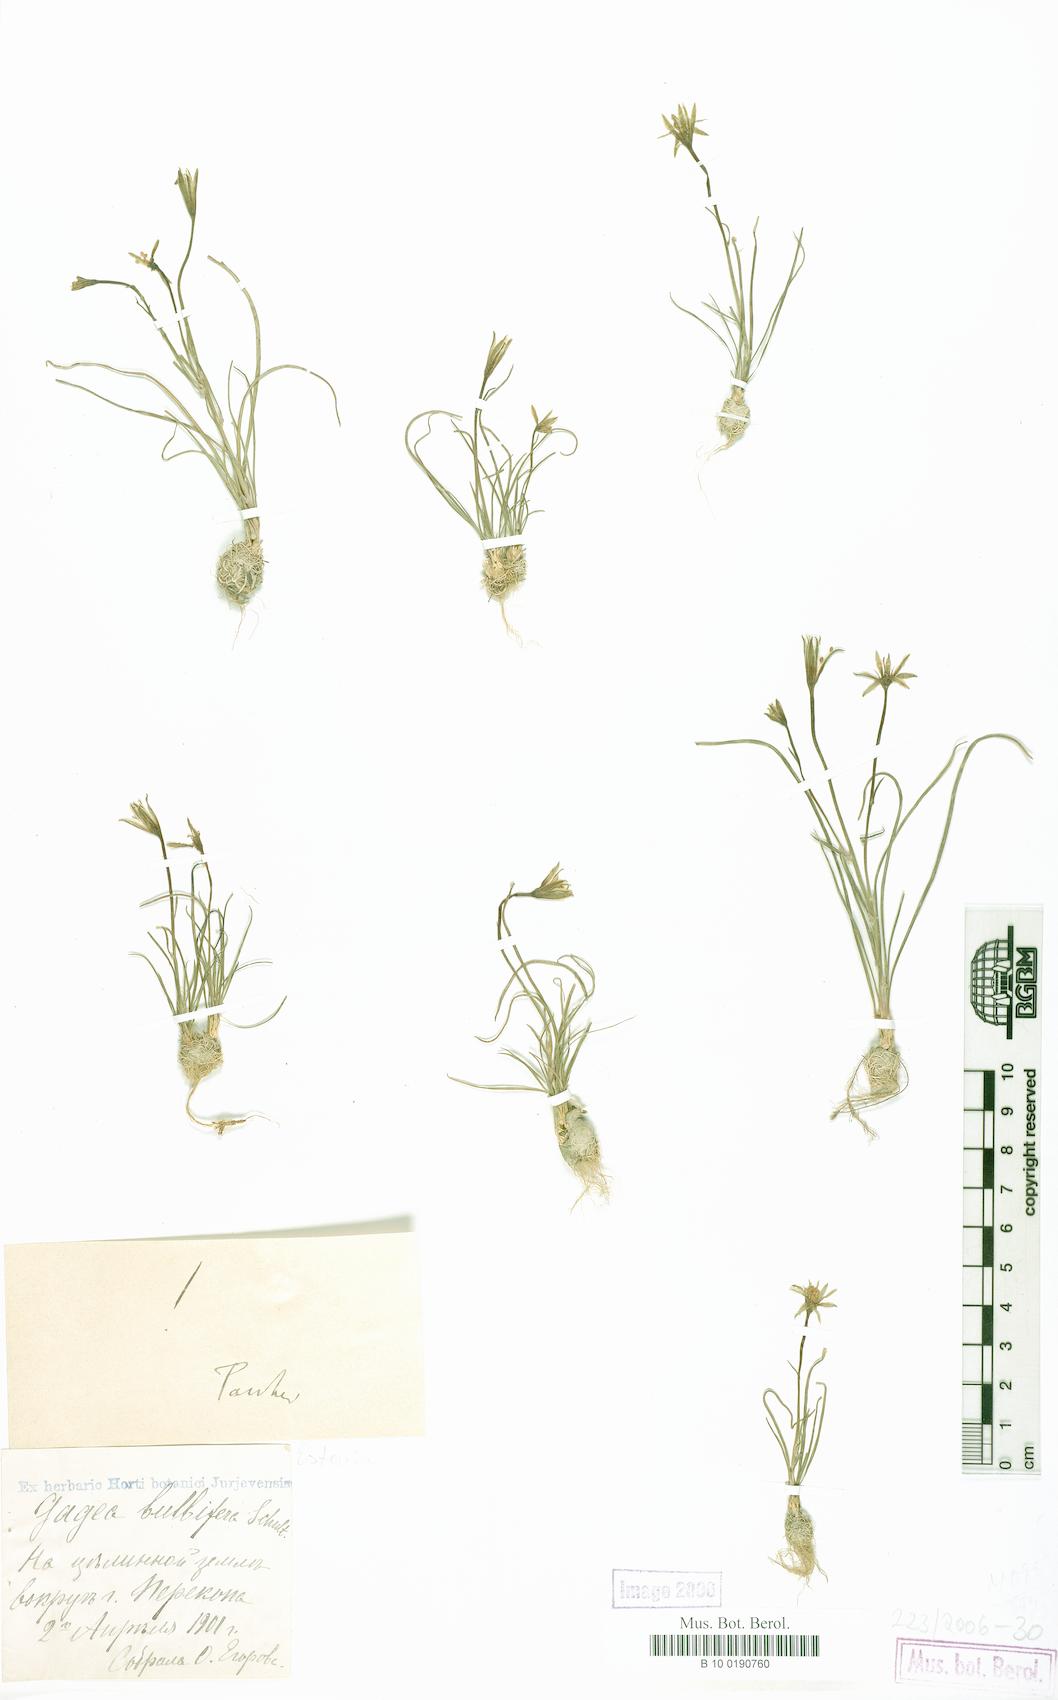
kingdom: Plantae
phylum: Tracheophyta
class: Liliopsida
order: Liliales
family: Liliaceae
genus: Gagea
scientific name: Gagea bulbifera
